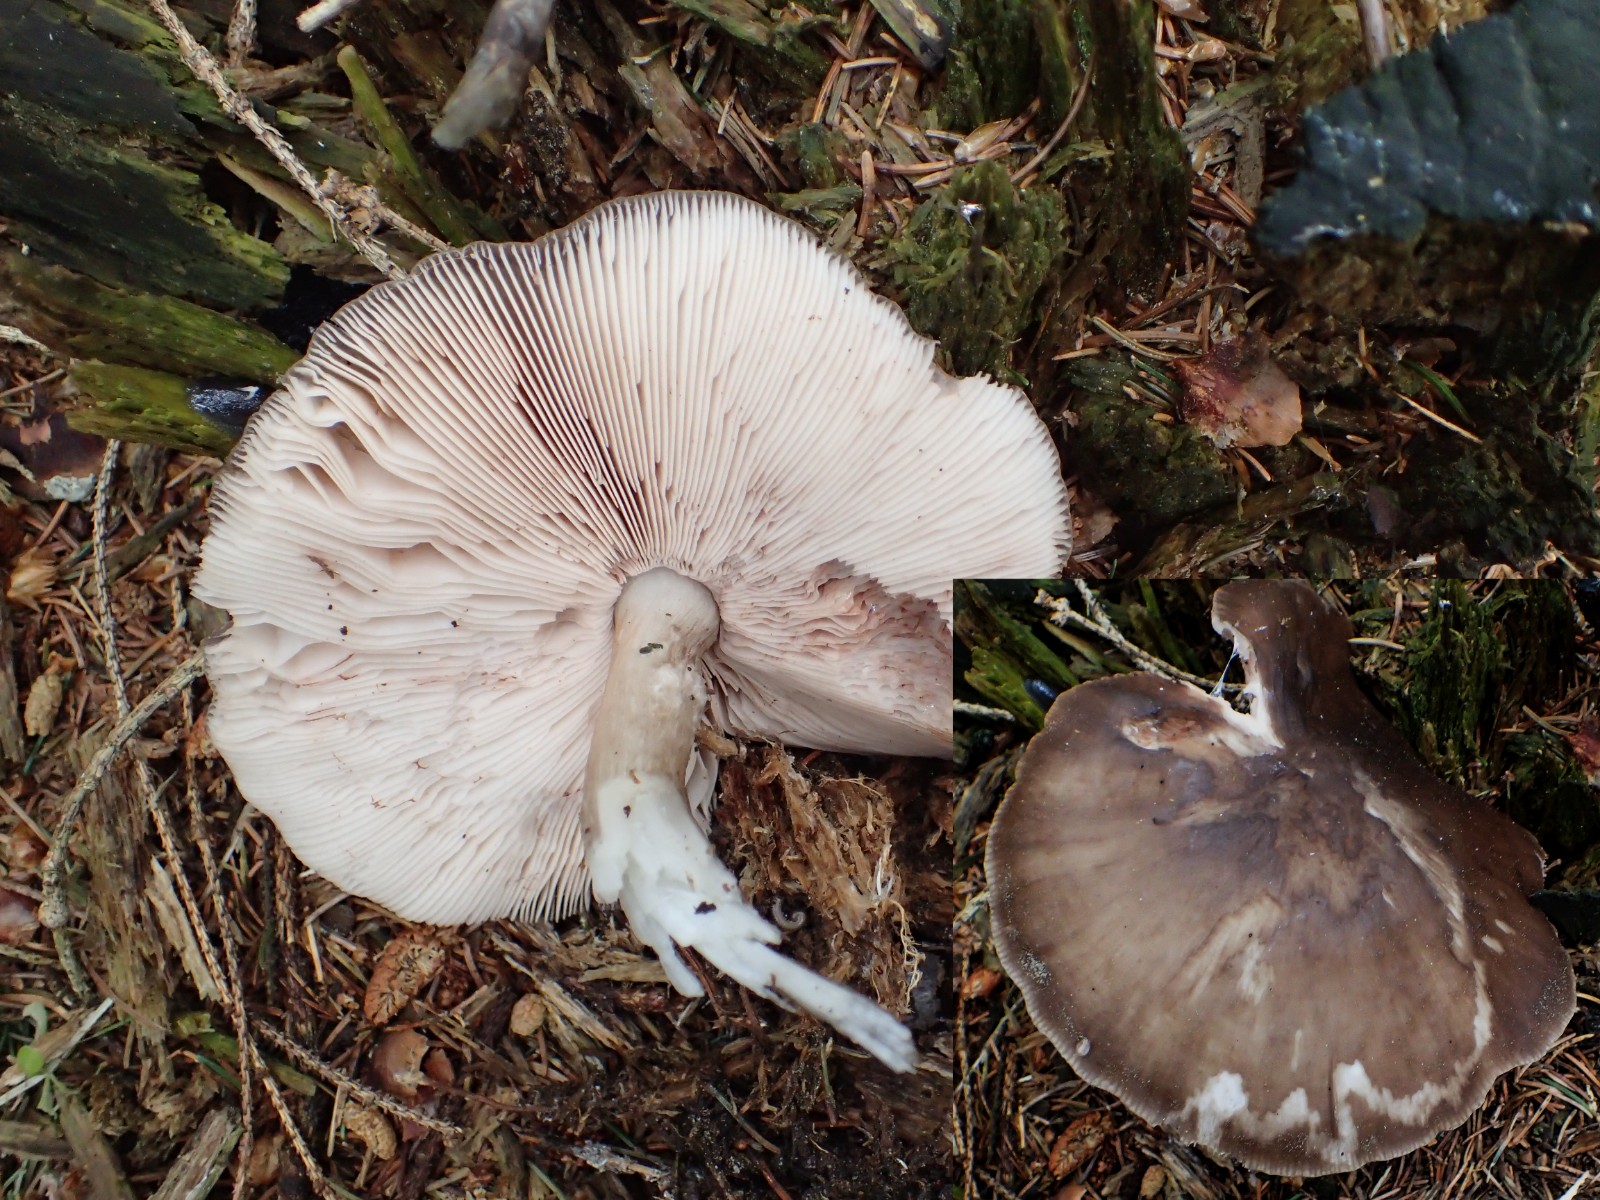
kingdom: Fungi
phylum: Basidiomycota
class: Agaricomycetes
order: Agaricales
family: Pluteaceae
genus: Pluteus
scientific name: Pluteus
